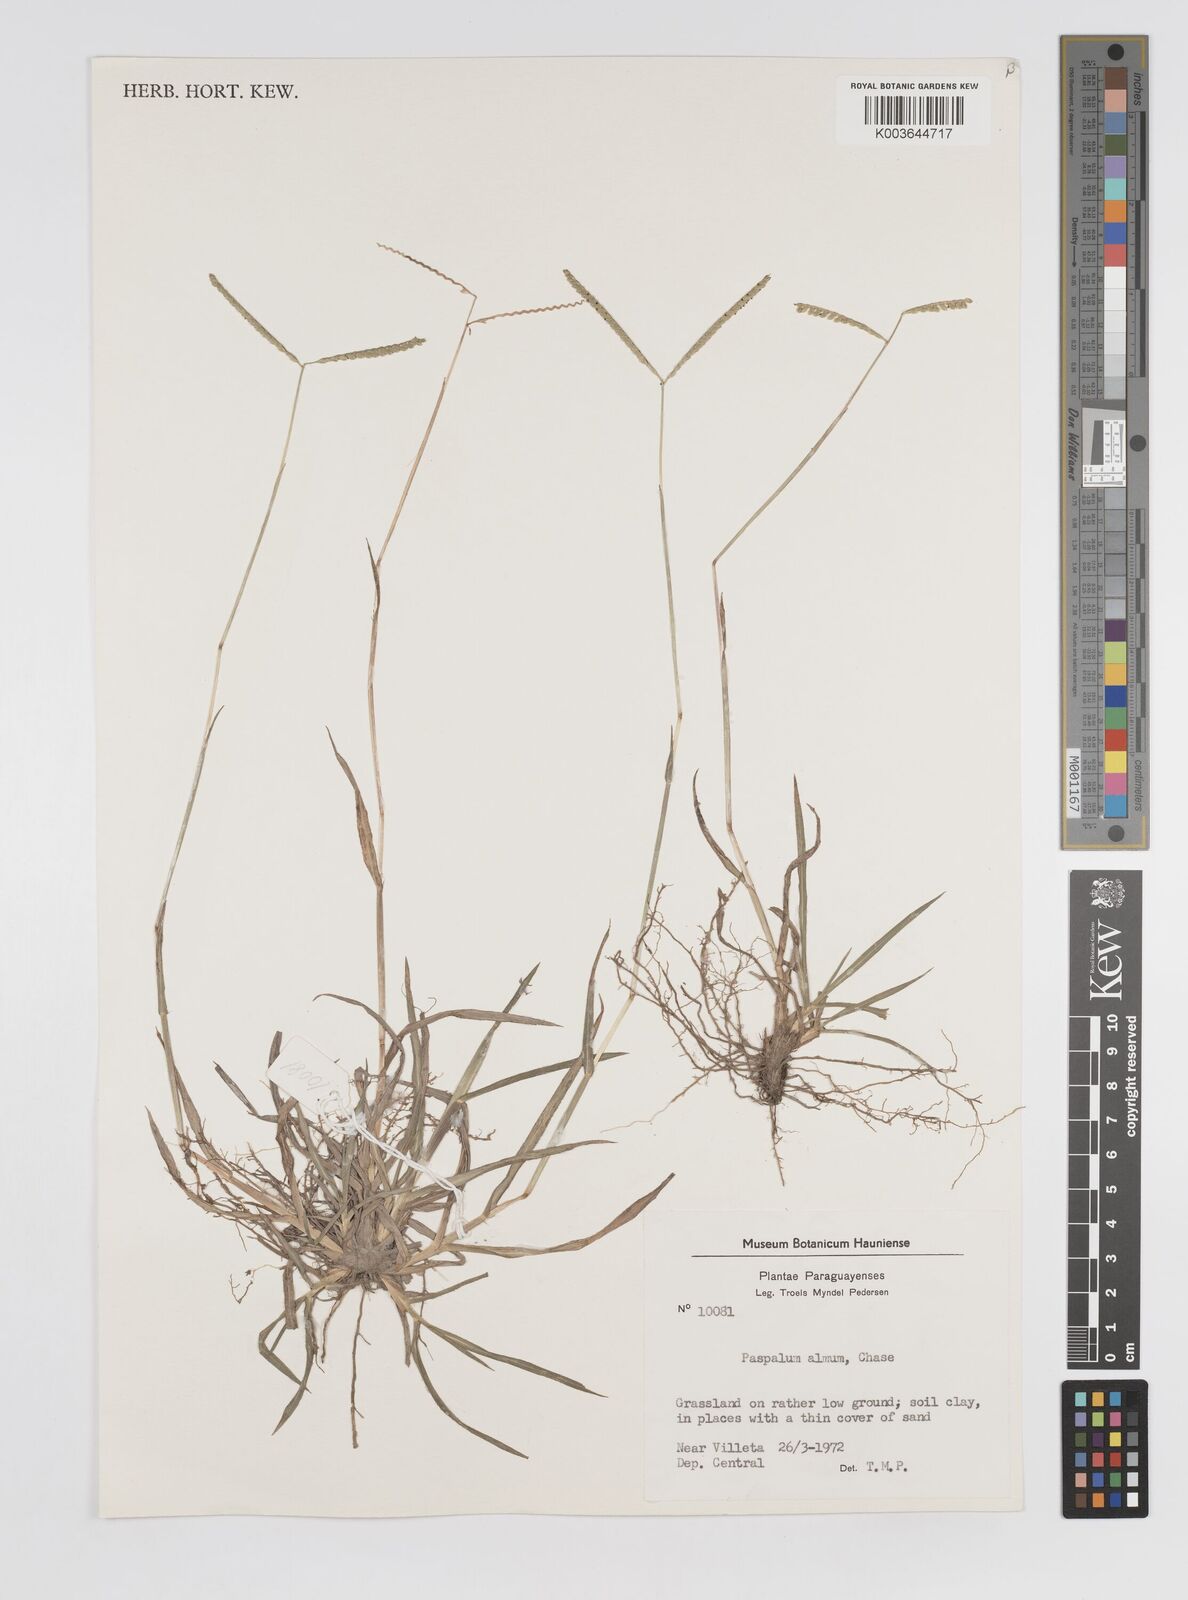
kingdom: Plantae
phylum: Tracheophyta
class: Liliopsida
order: Poales
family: Poaceae
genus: Paspalum
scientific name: Paspalum almum
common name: Comb's crowngrass
